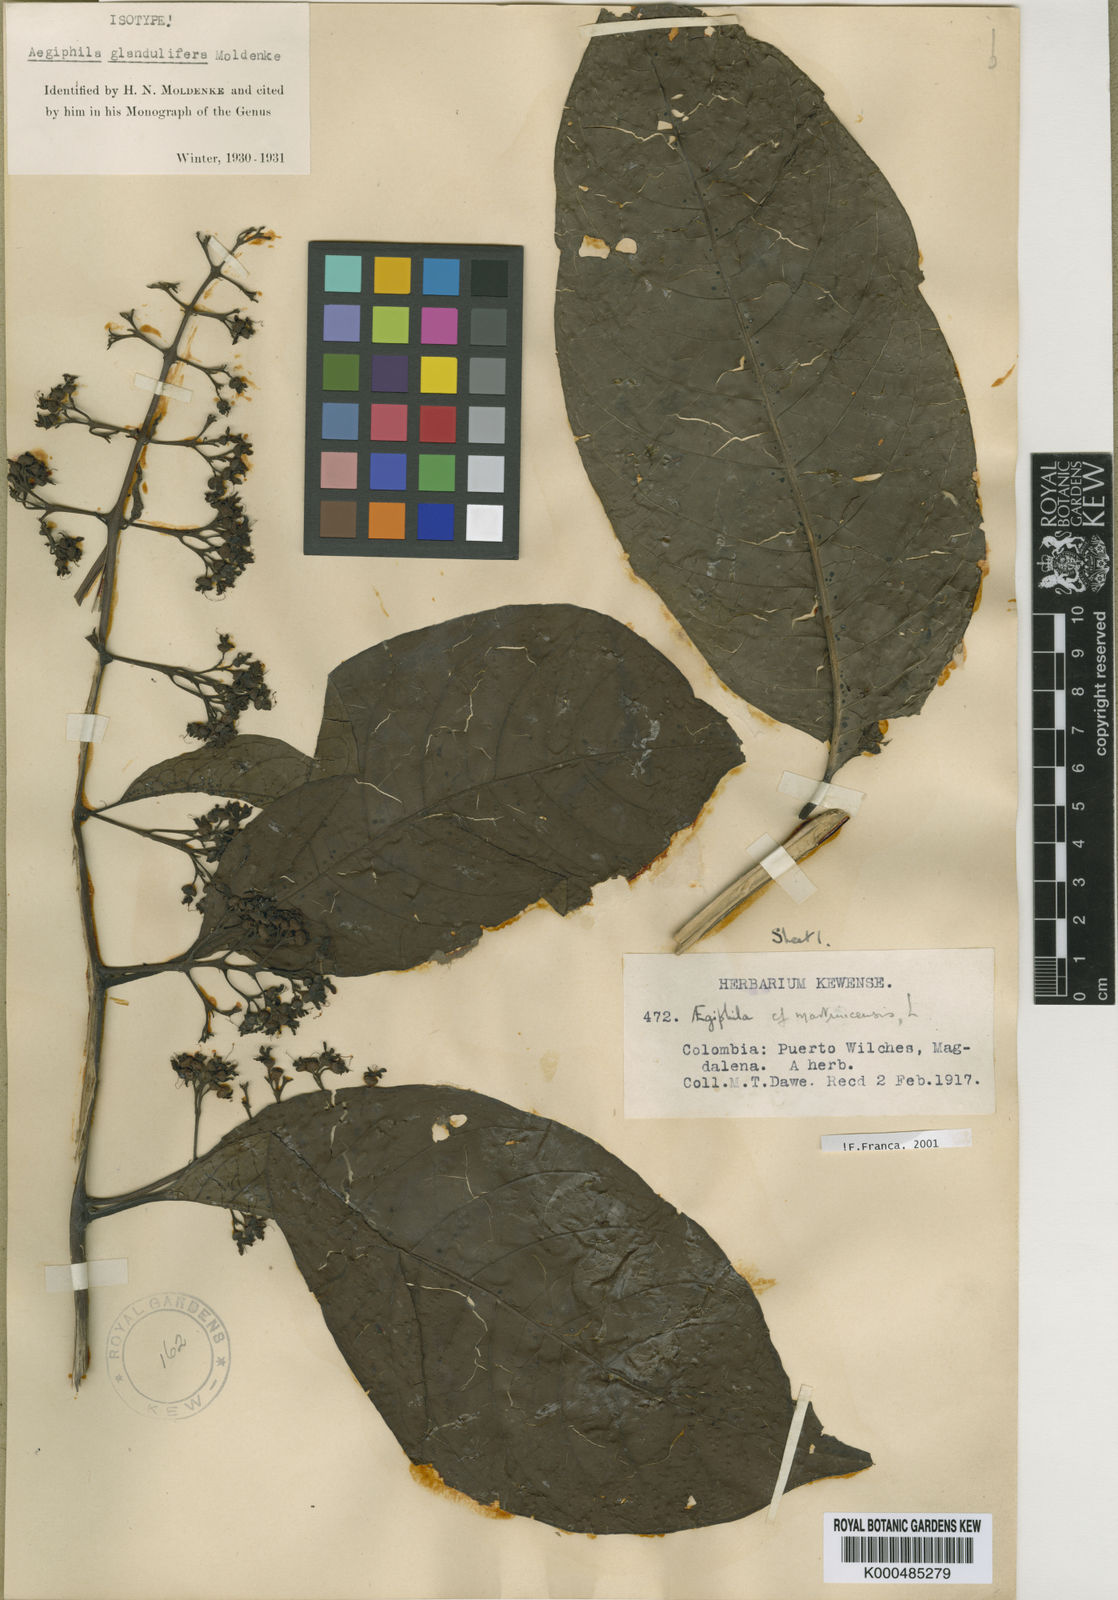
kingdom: Plantae
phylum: Tracheophyta
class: Magnoliopsida
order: Lamiales
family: Lamiaceae
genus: Aegiphila
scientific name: Aegiphila panamensis
